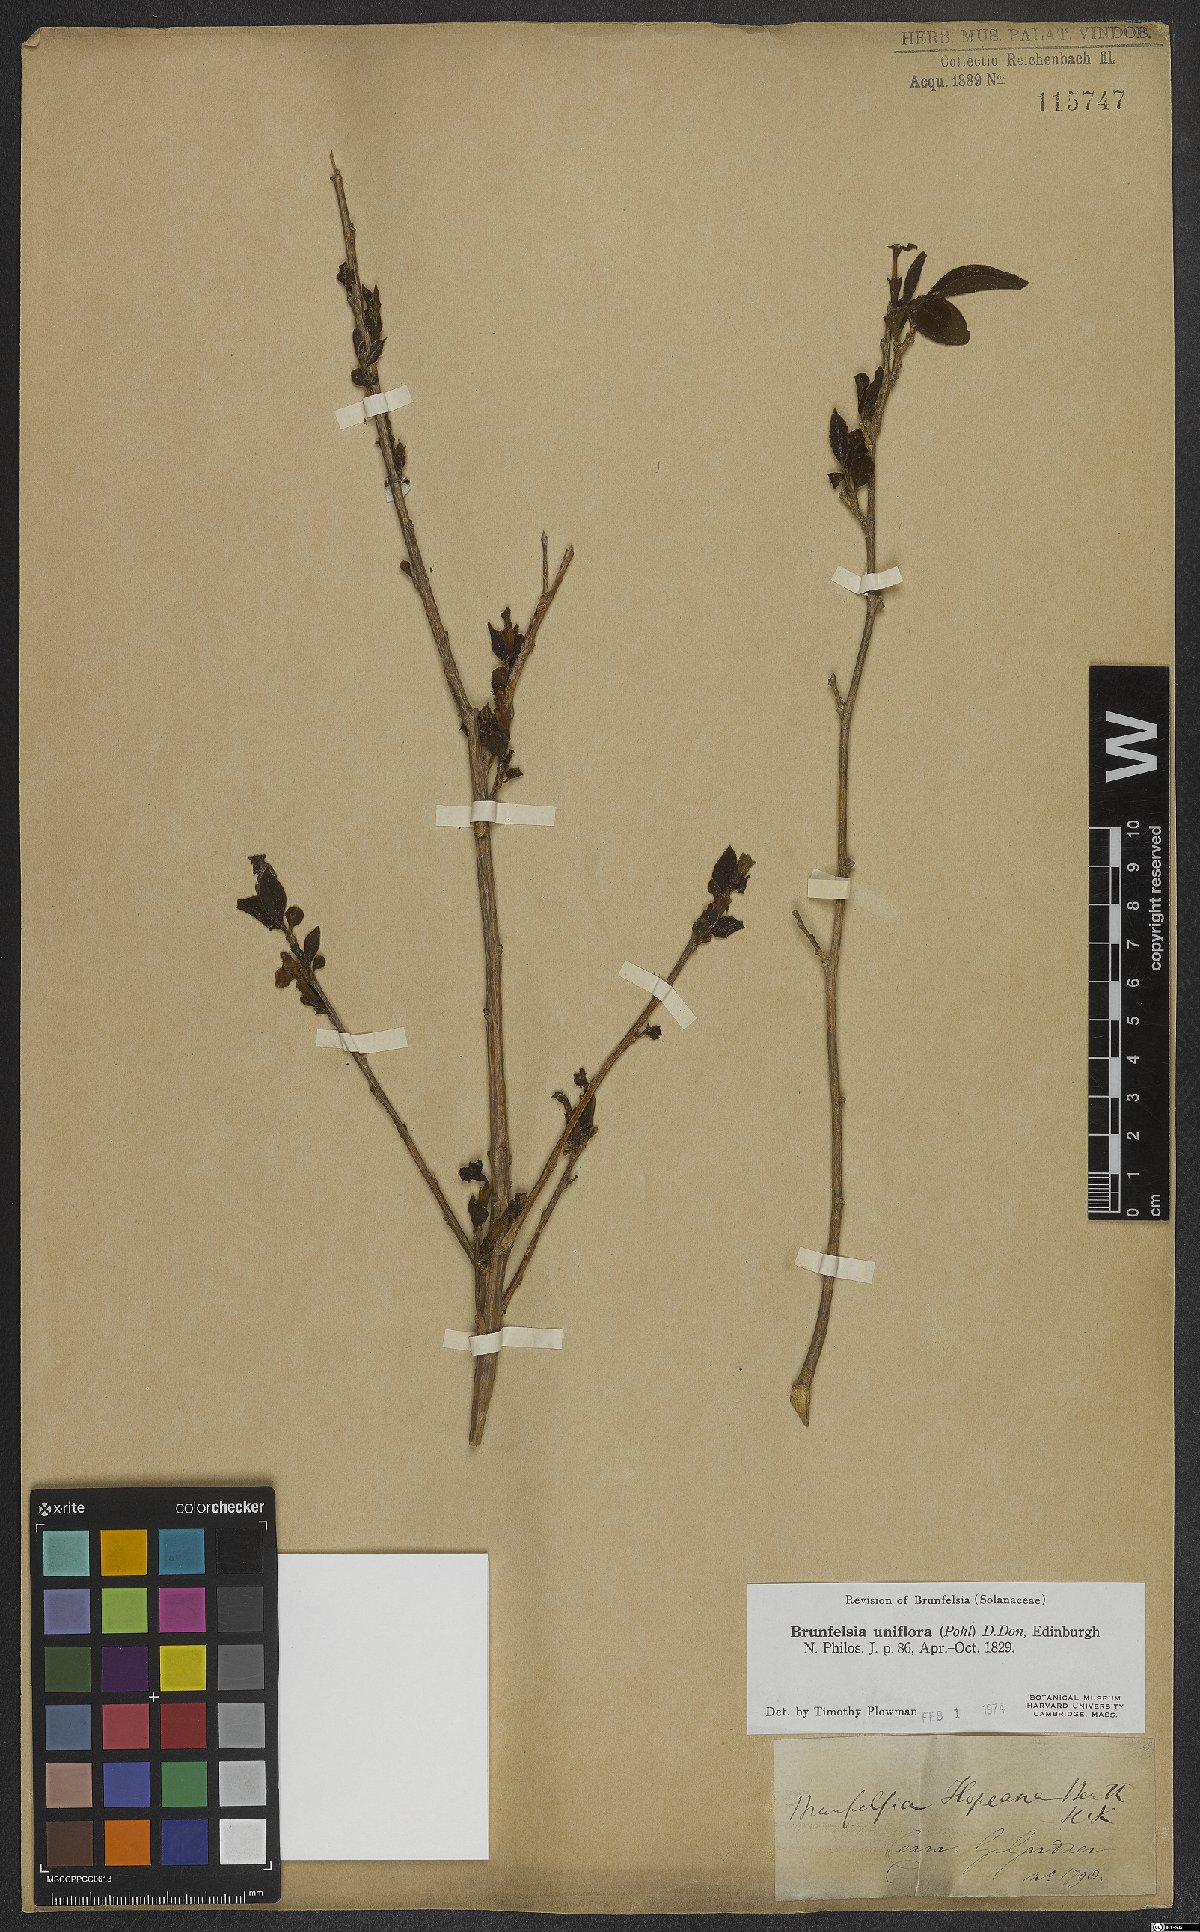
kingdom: Plantae
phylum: Tracheophyta
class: Magnoliopsida
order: Solanales
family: Solanaceae
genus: Brunfelsia
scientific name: Brunfelsia uniflora
